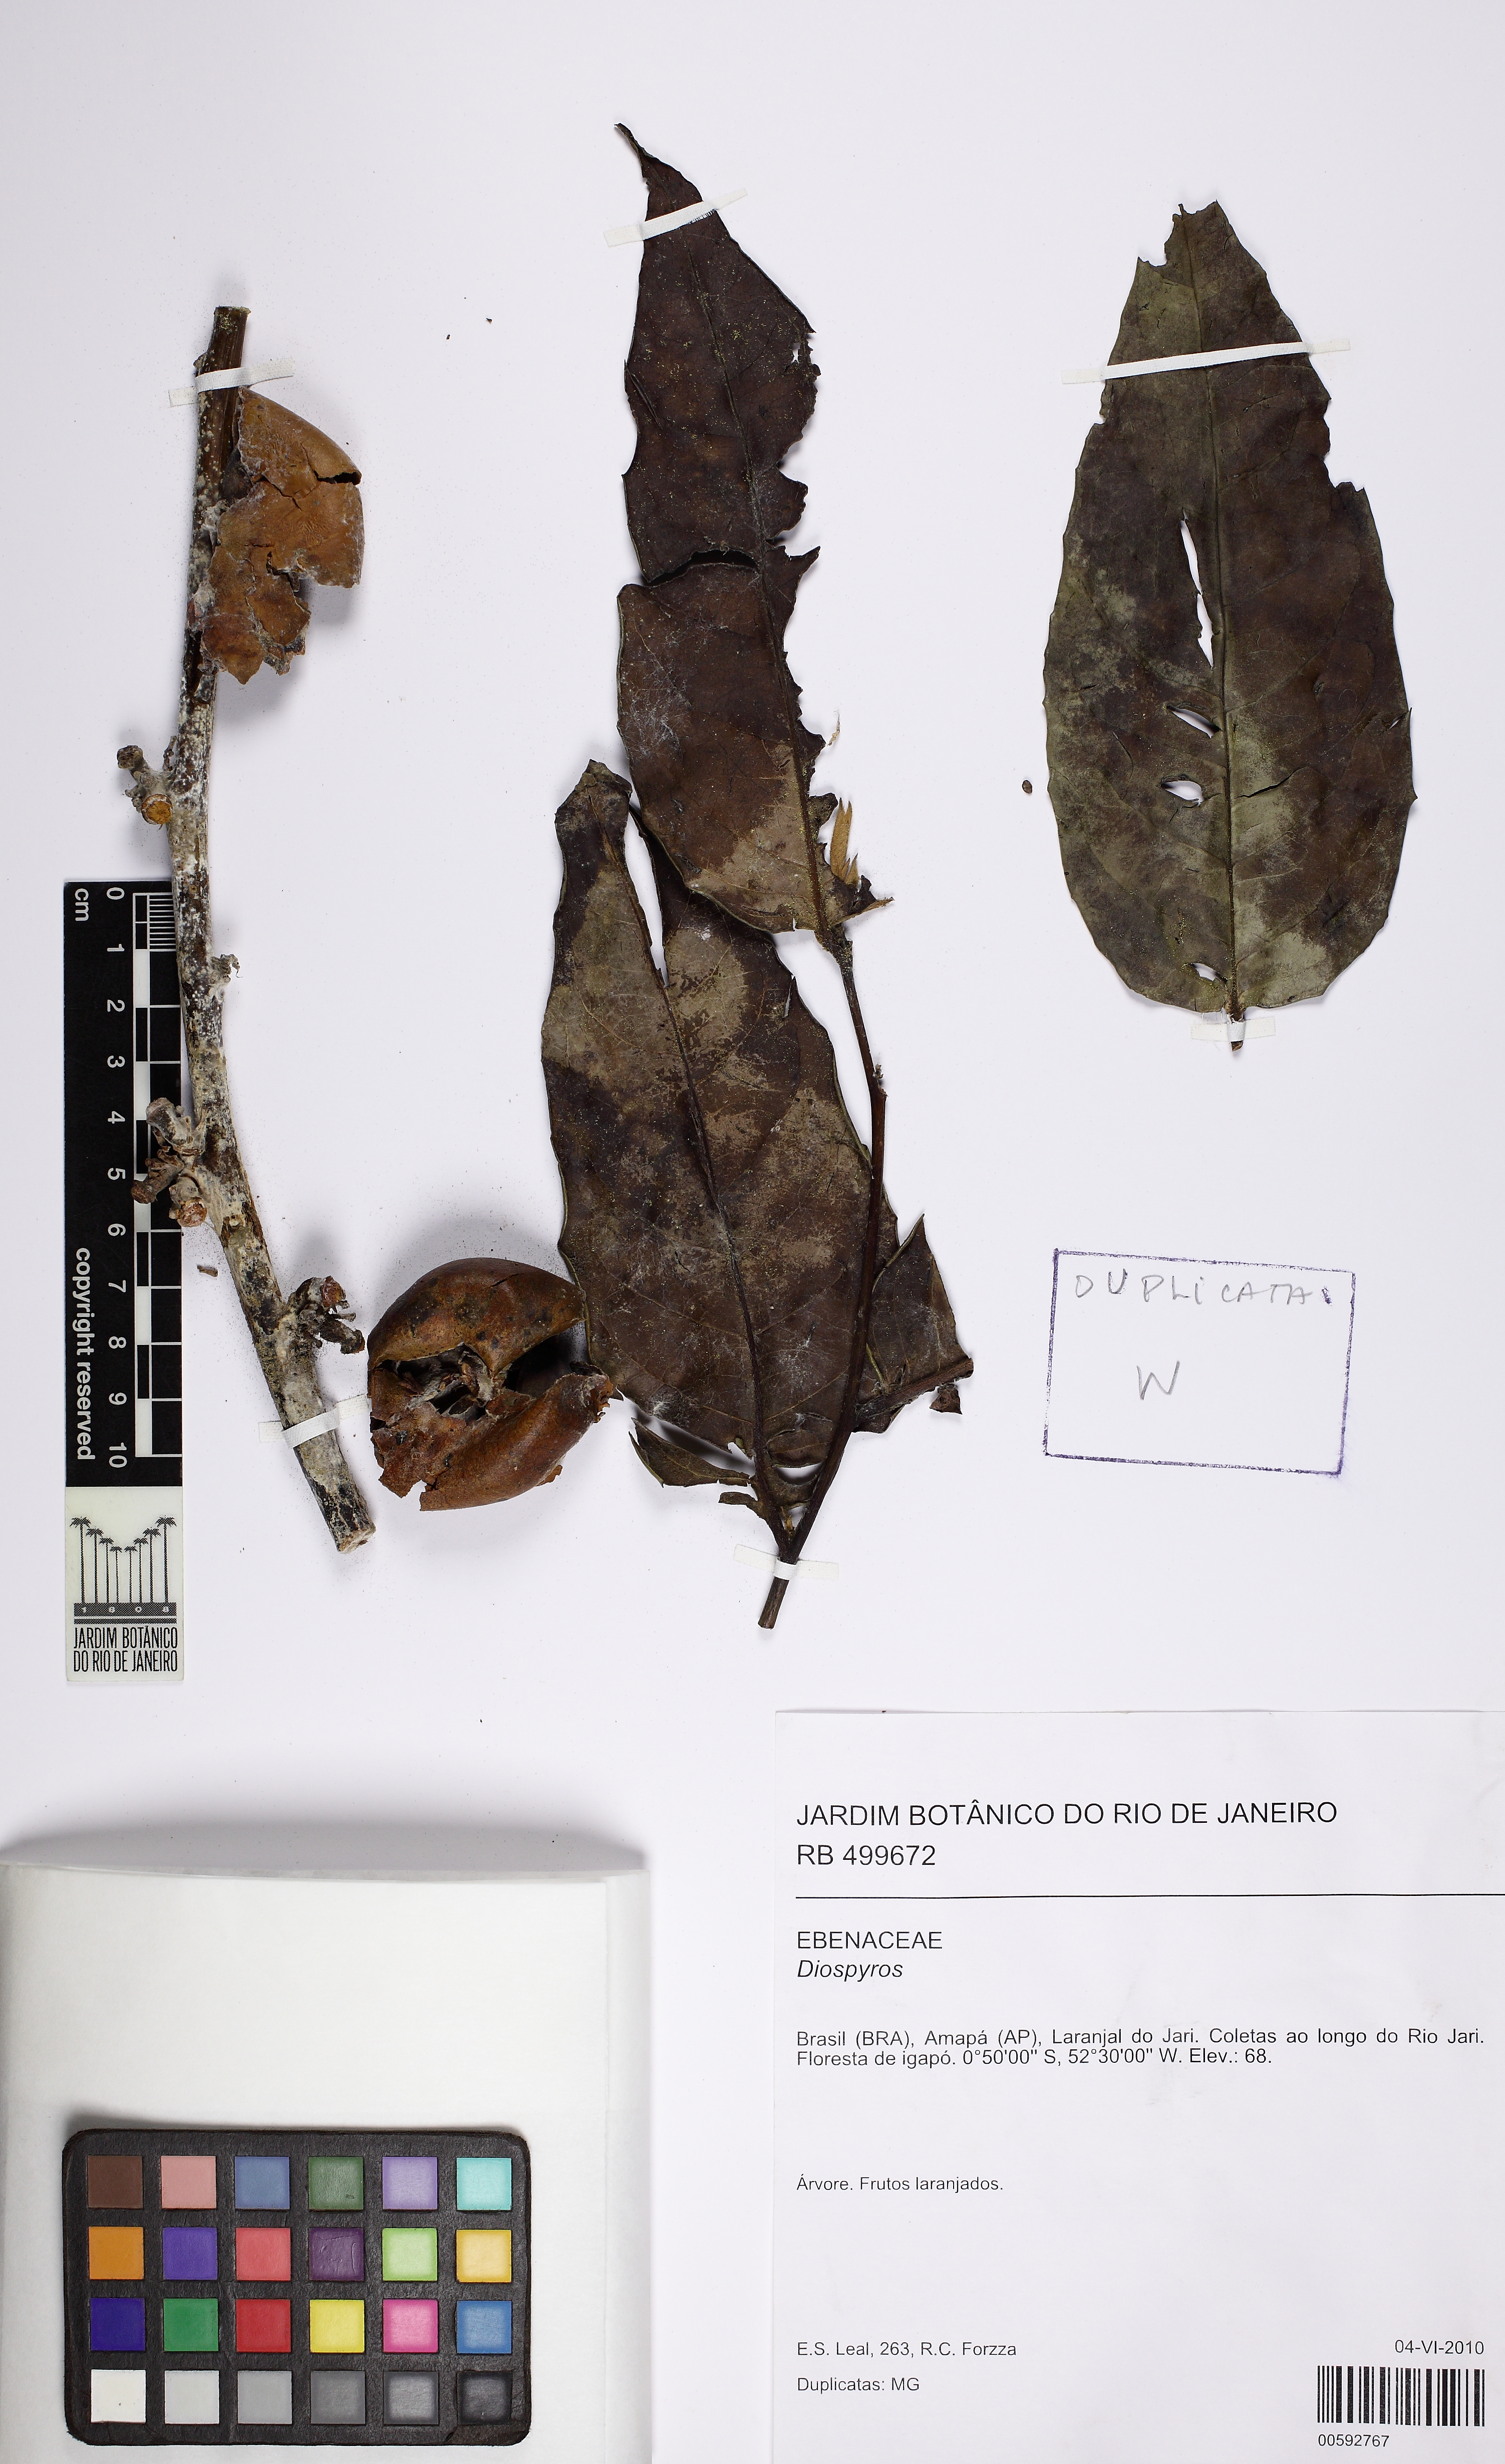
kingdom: Plantae
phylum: Tracheophyta
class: Magnoliopsida
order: Ericales
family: Ebenaceae
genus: Diospyros
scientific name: Diospyros
